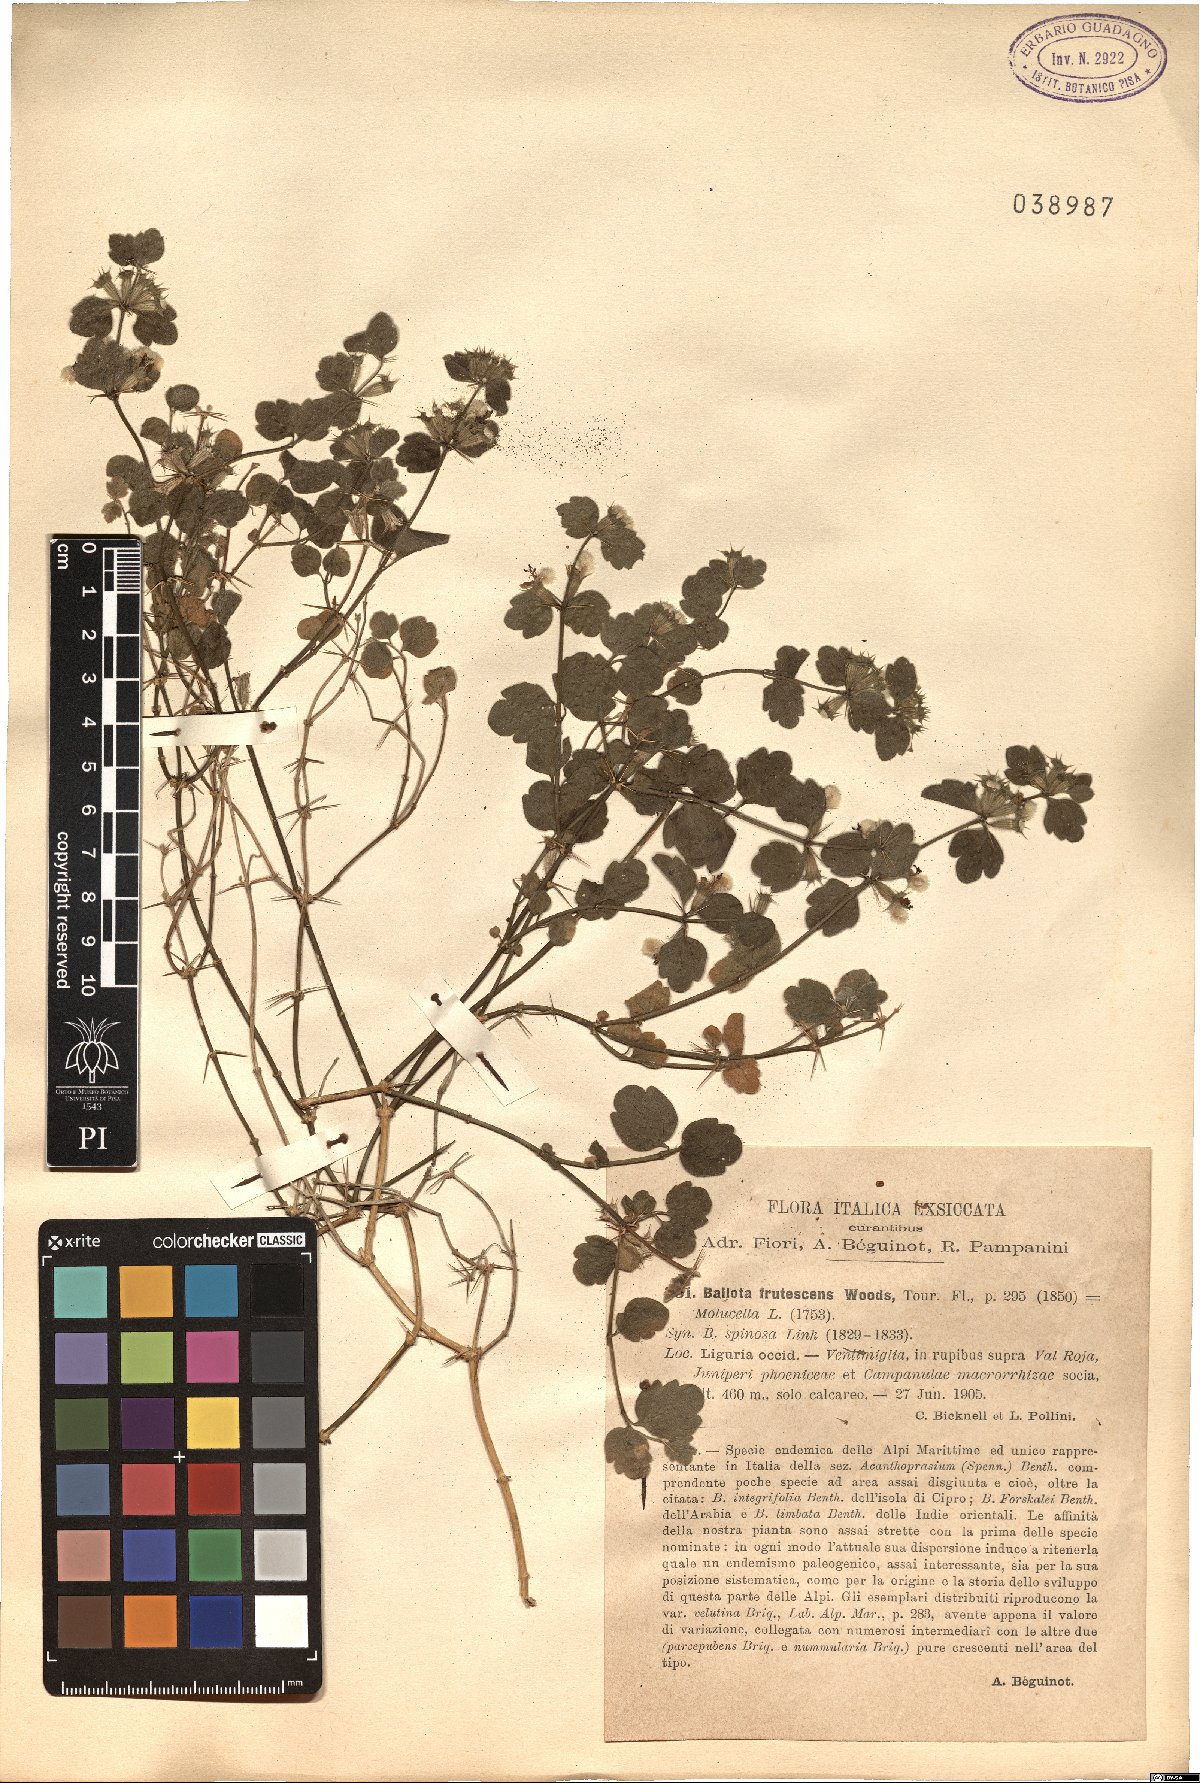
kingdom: Plantae
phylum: Tracheophyta
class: Magnoliopsida
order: Lamiales
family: Lamiaceae
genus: Acanthoprasium
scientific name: Acanthoprasium frutescens
